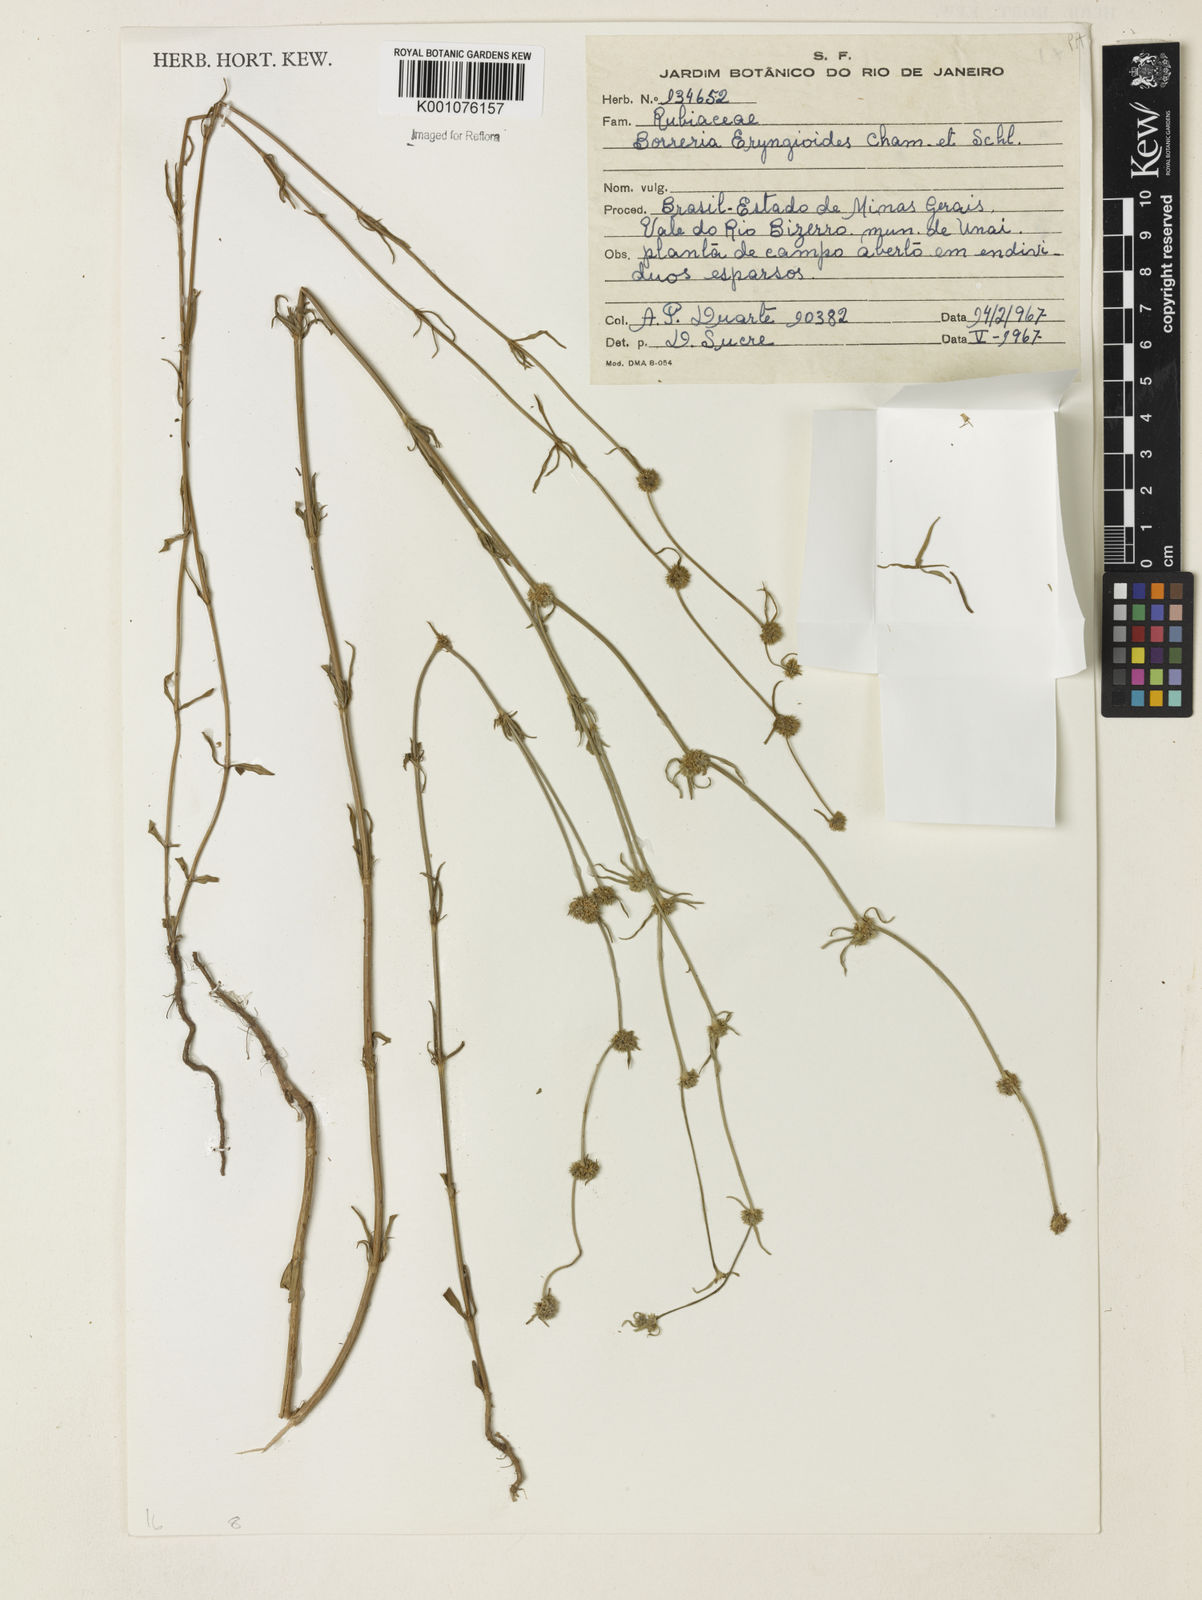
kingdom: Plantae
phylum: Tracheophyta
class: Magnoliopsida
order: Gentianales
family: Rubiaceae
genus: Spermacoce
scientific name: Spermacoce eryngioides
